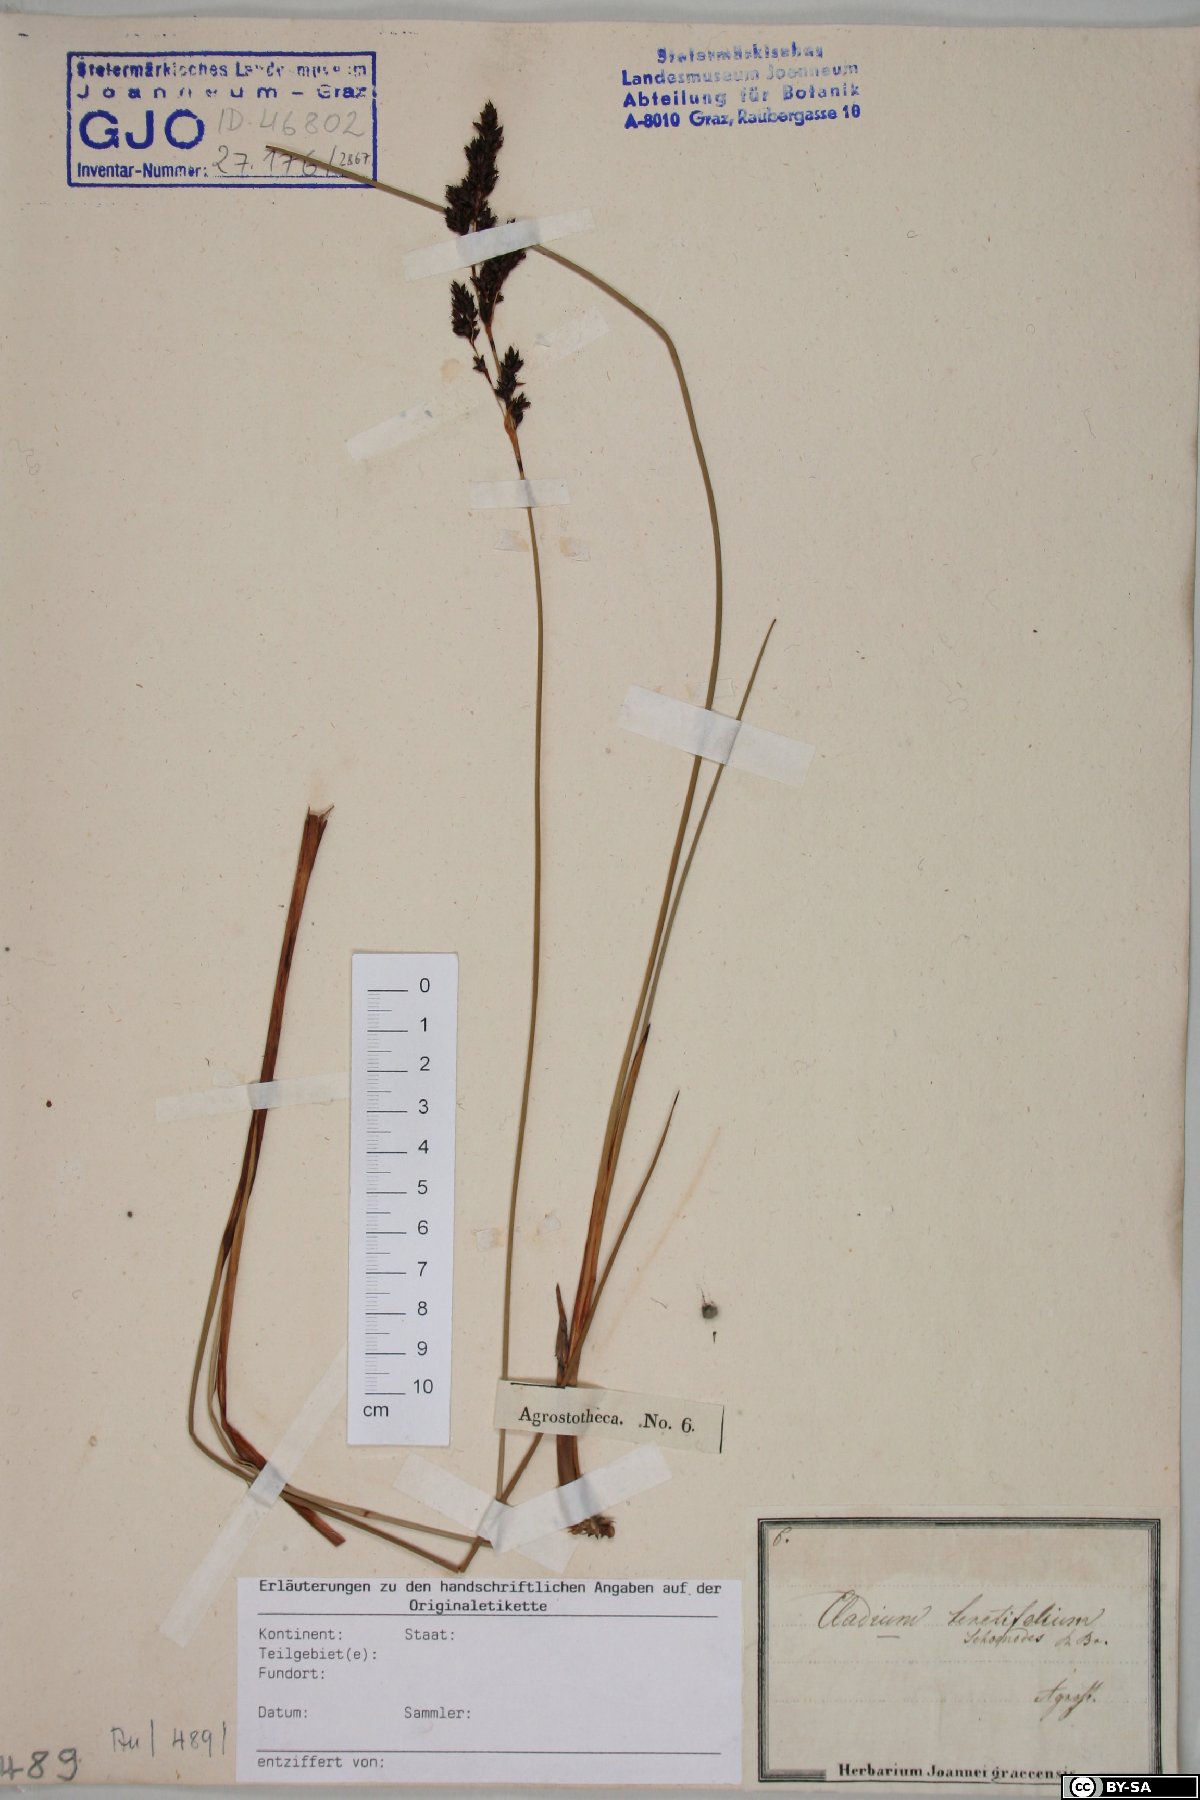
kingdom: Plantae
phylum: Tracheophyta
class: Liliopsida
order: Poales
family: Cyperaceae
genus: Machaerina
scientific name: Machaerina teretifolia
